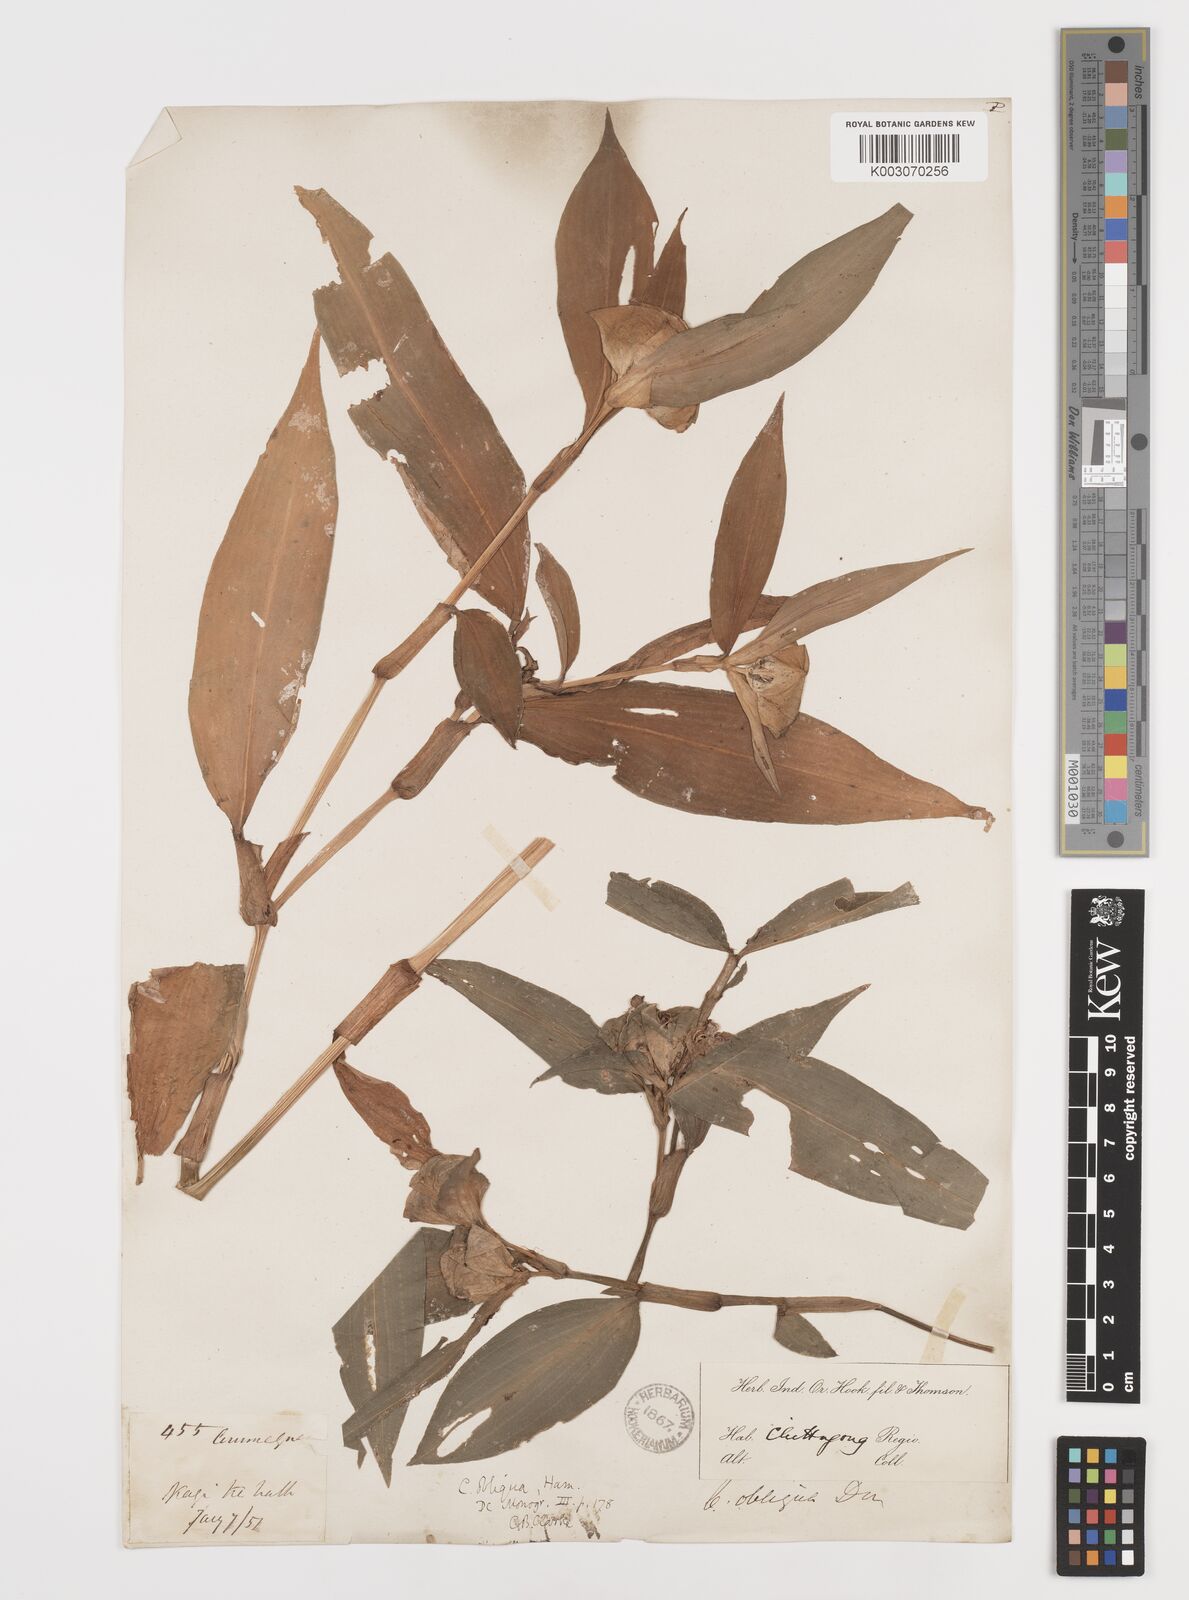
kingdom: Plantae
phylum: Tracheophyta
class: Liliopsida
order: Commelinales
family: Commelinaceae
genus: Commelina
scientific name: Commelina paludosa
